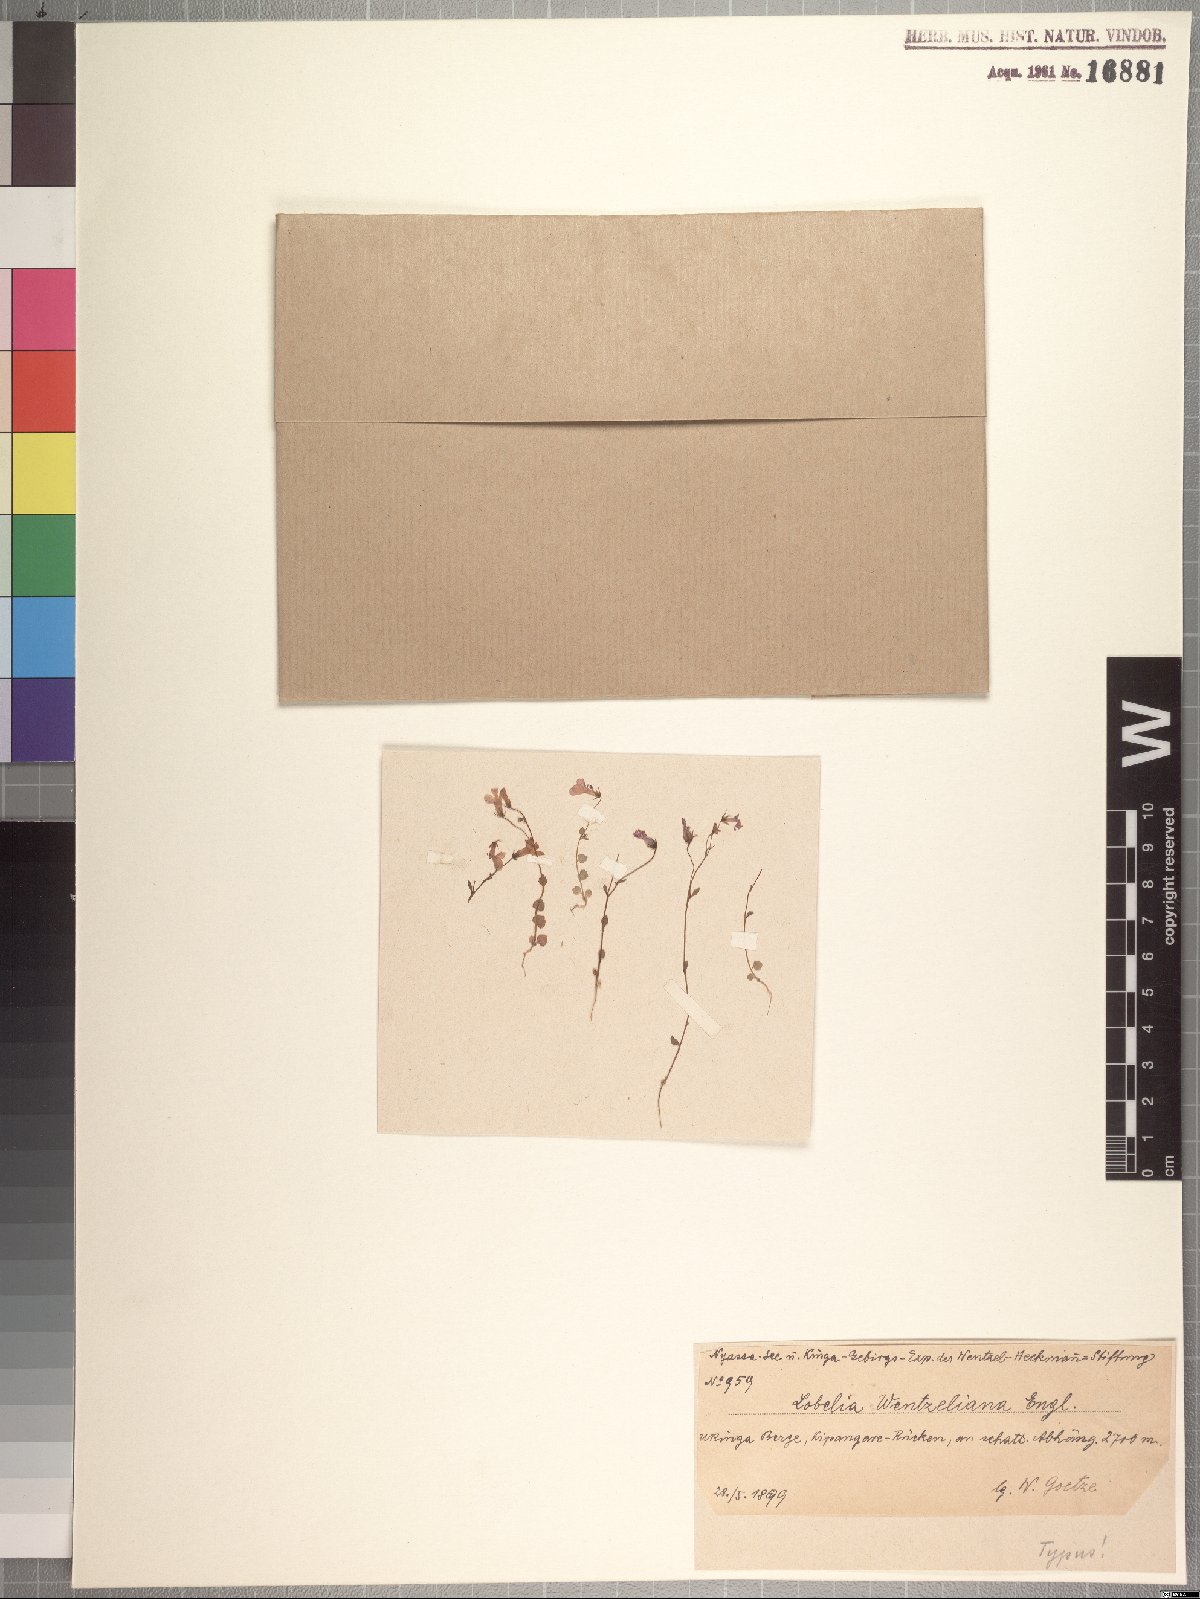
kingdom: Plantae
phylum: Tracheophyta
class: Magnoliopsida
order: Asterales
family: Campanulaceae
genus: Lobelia
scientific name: Lobelia trullifolia
